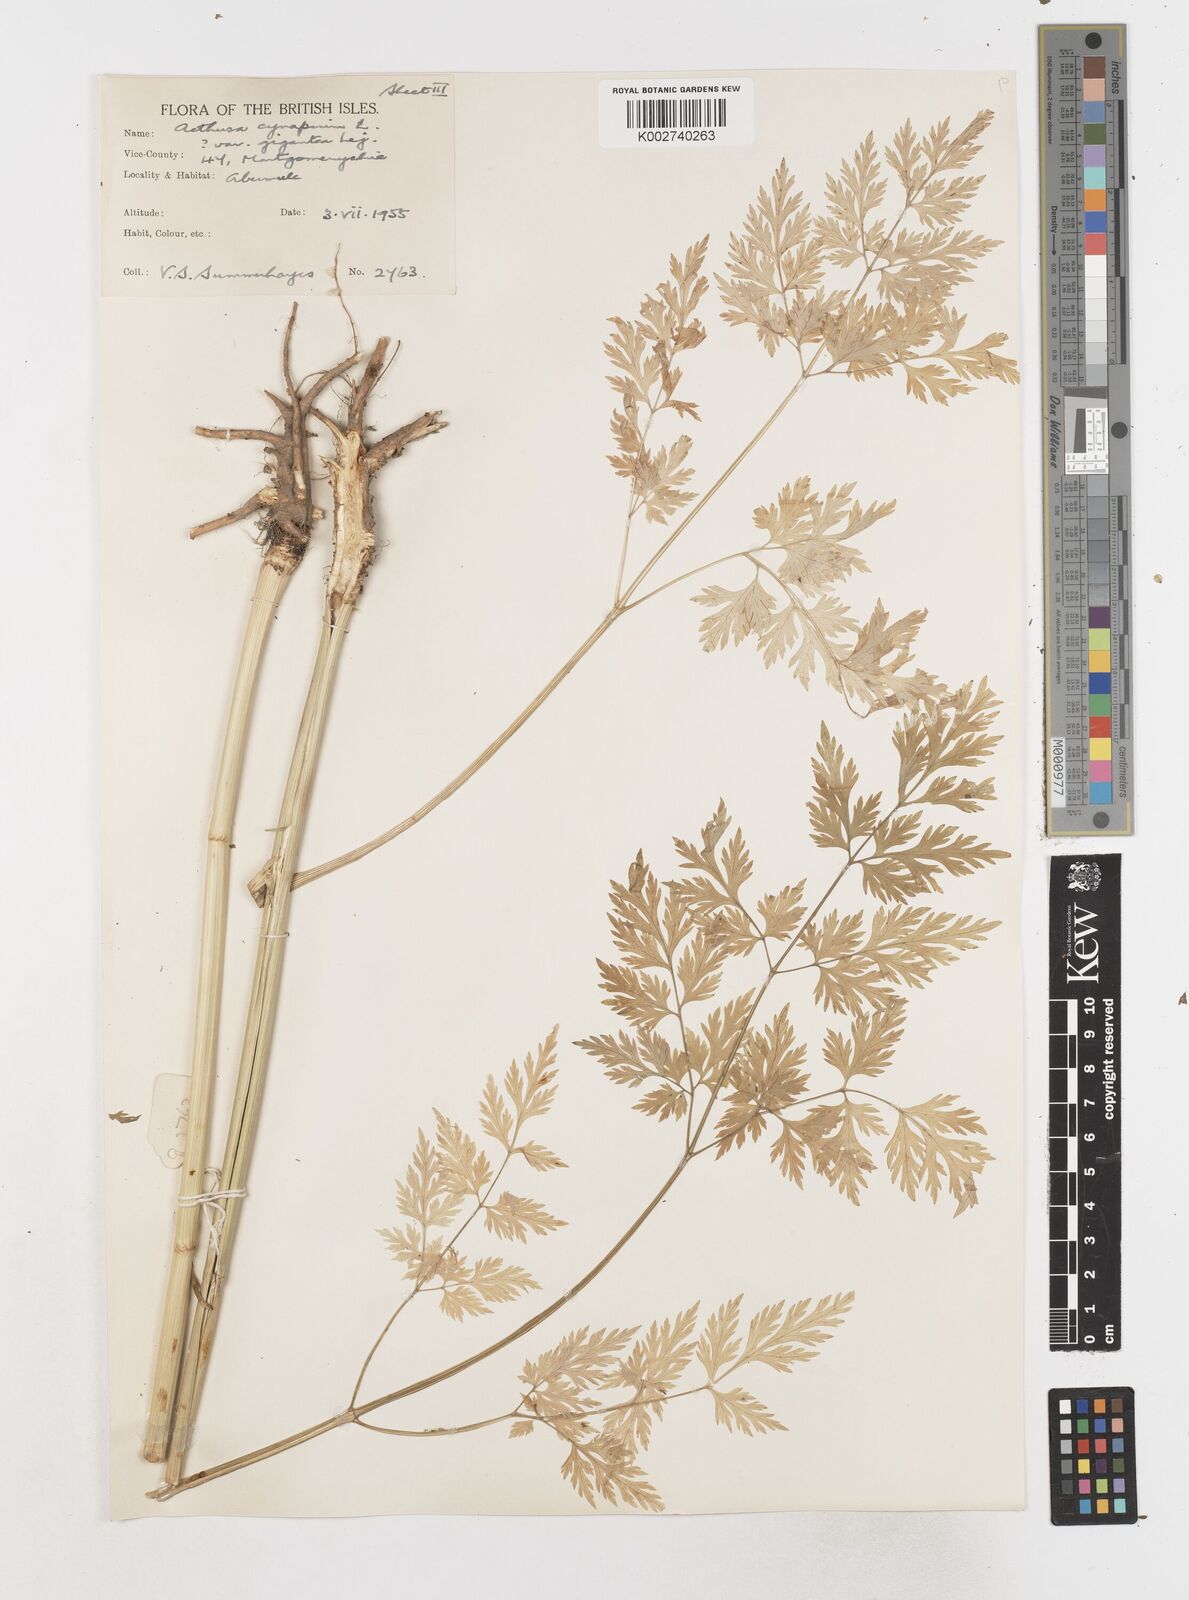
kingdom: Plantae
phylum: Tracheophyta
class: Magnoliopsida
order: Apiales
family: Apiaceae
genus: Aethusa
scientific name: Aethusa cynapium
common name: Fool's parsley
